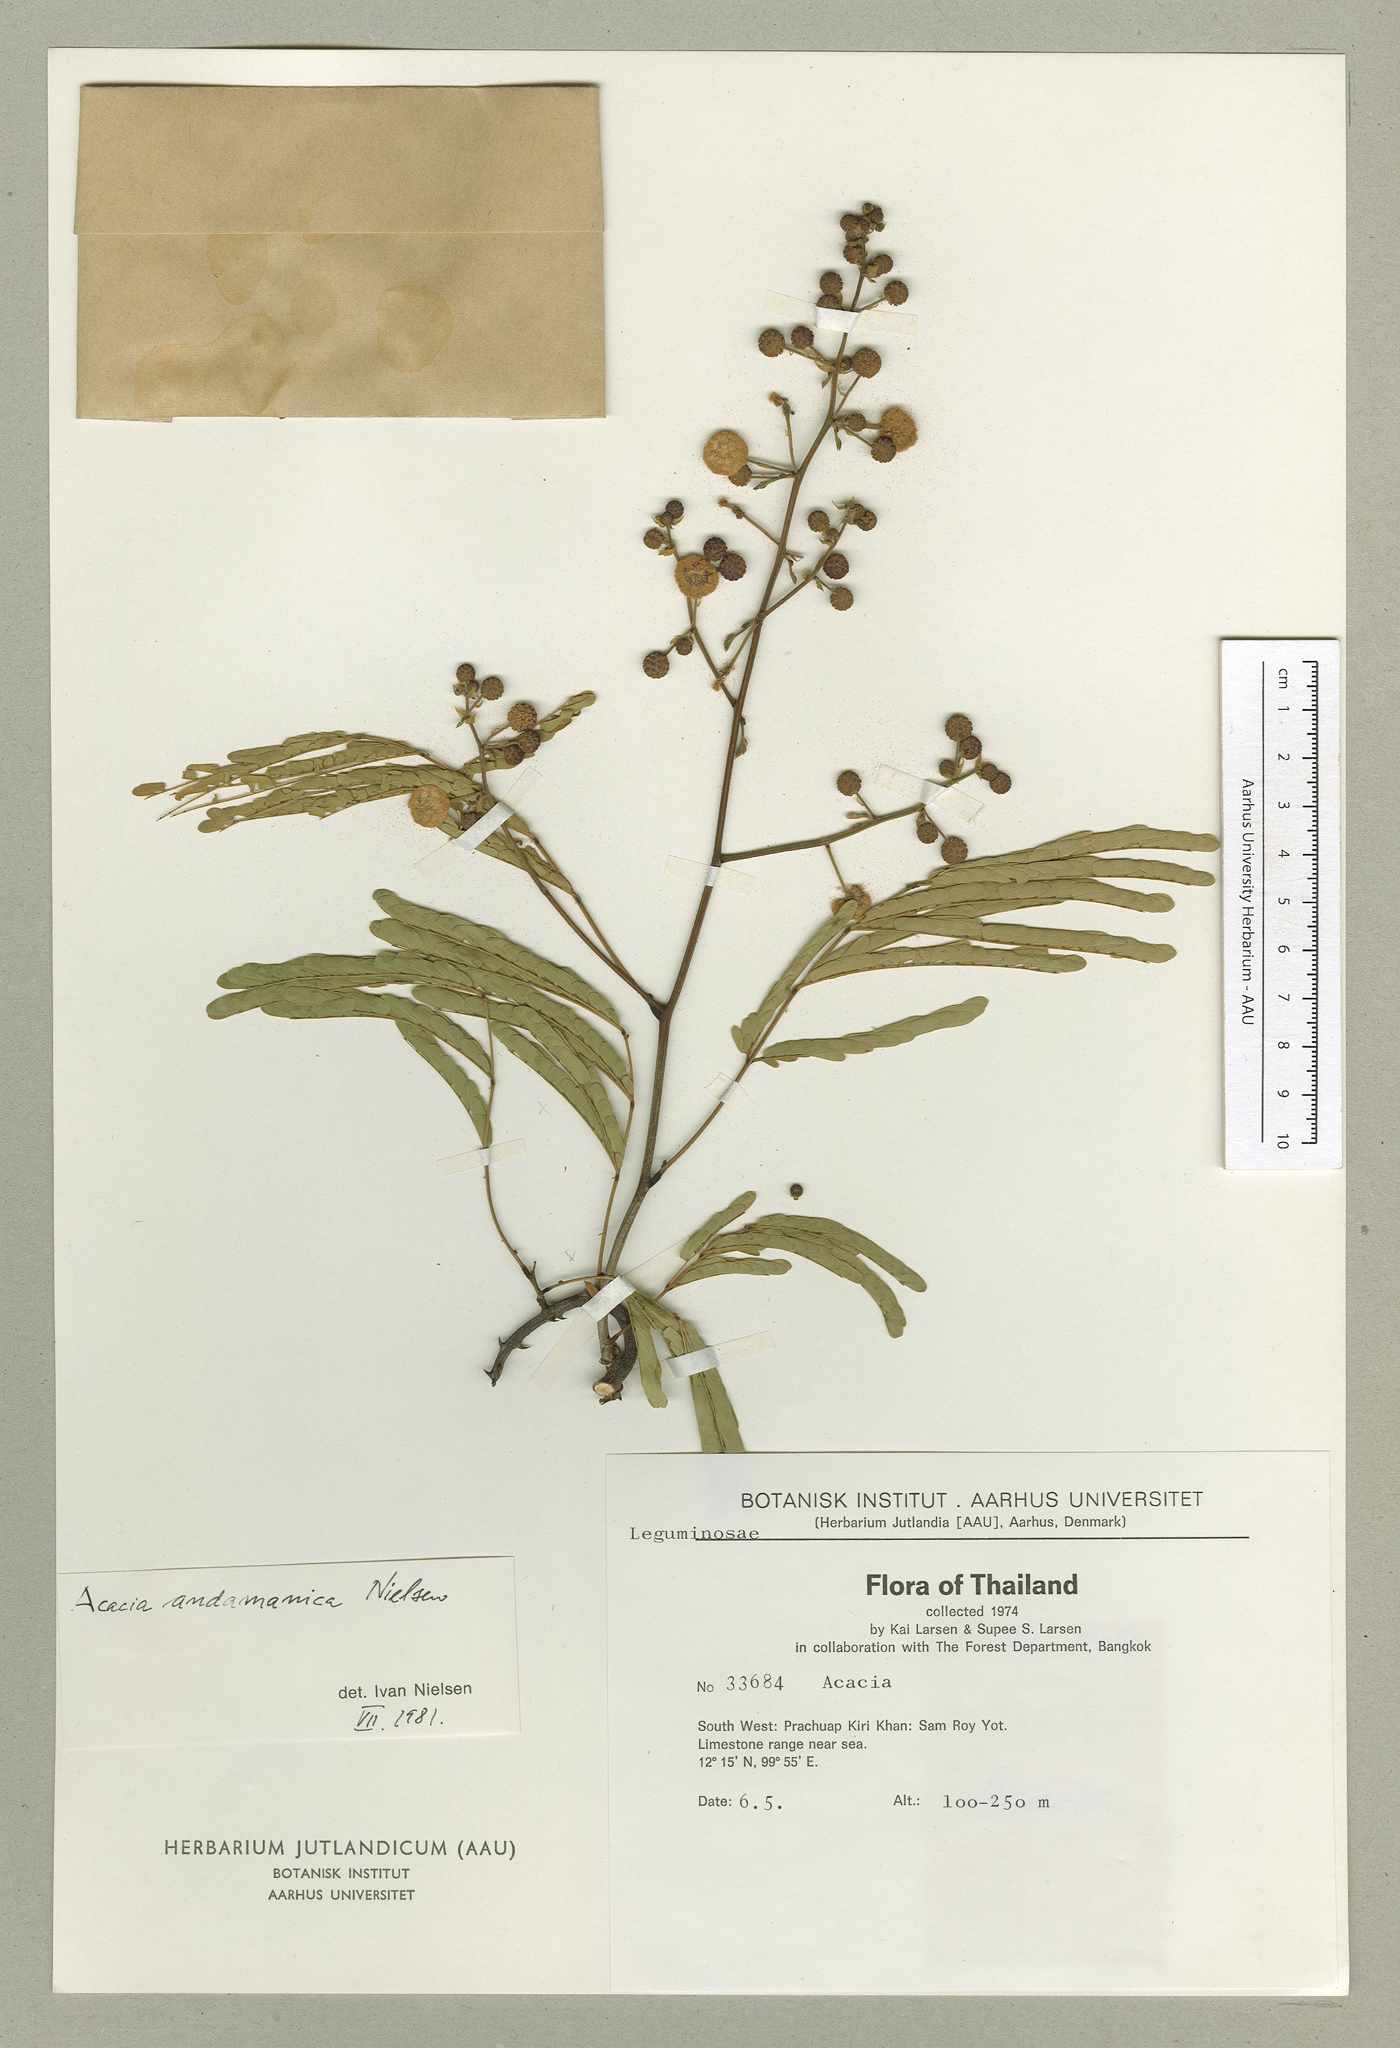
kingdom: Plantae
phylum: Tracheophyta
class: Magnoliopsida
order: Fabales
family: Fabaceae
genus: Senegalia
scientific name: Senegalia andamanica
